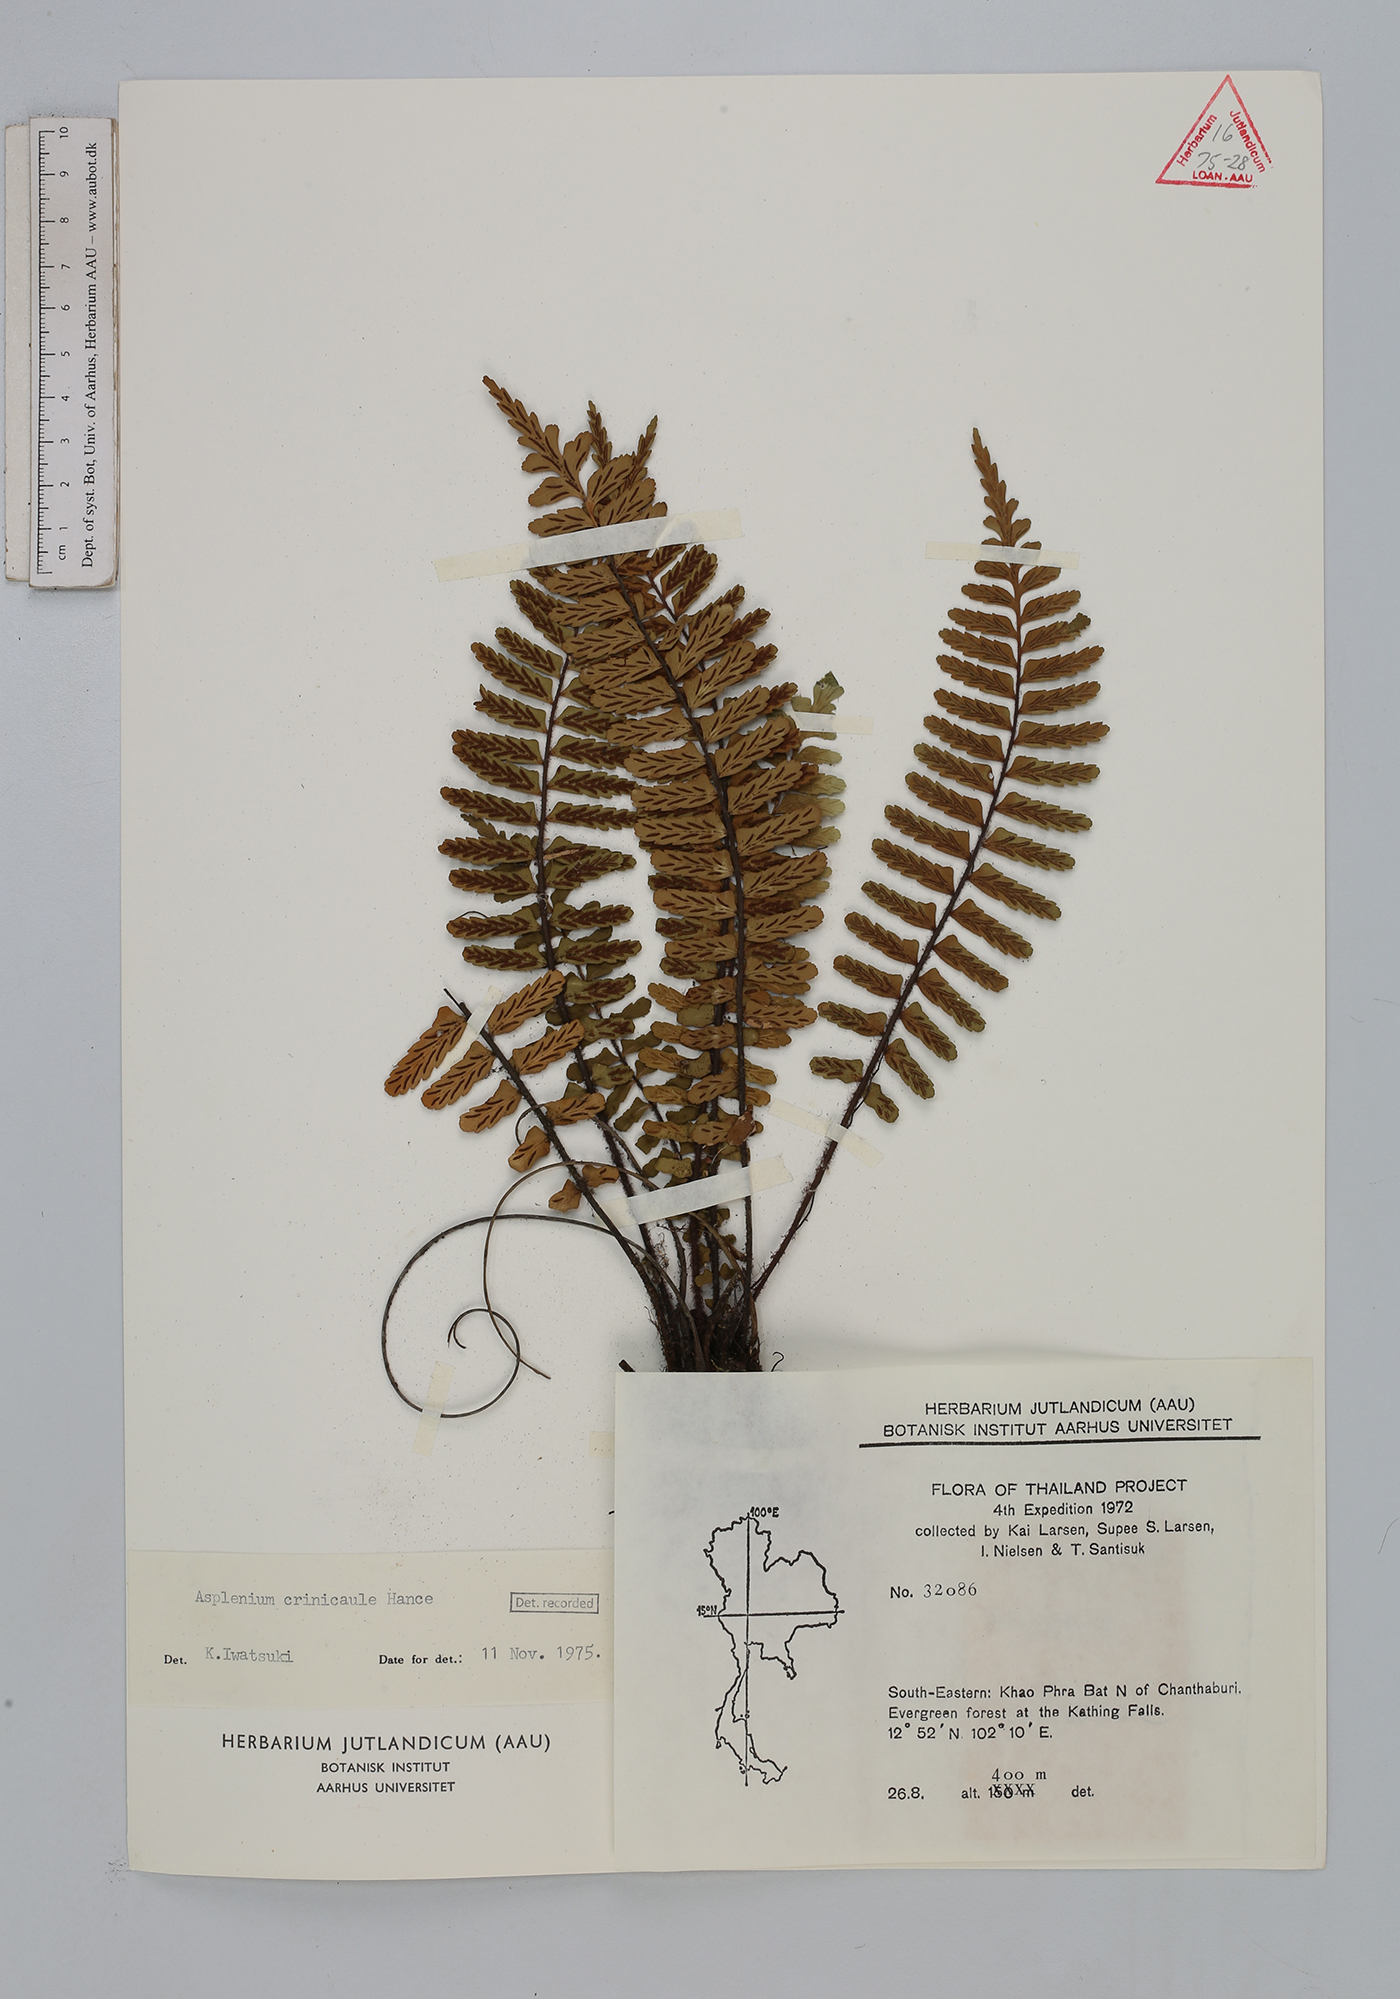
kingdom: Plantae
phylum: Tracheophyta
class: Polypodiopsida
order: Polypodiales
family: Aspleniaceae
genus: Asplenium
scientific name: Asplenium crinicaule
